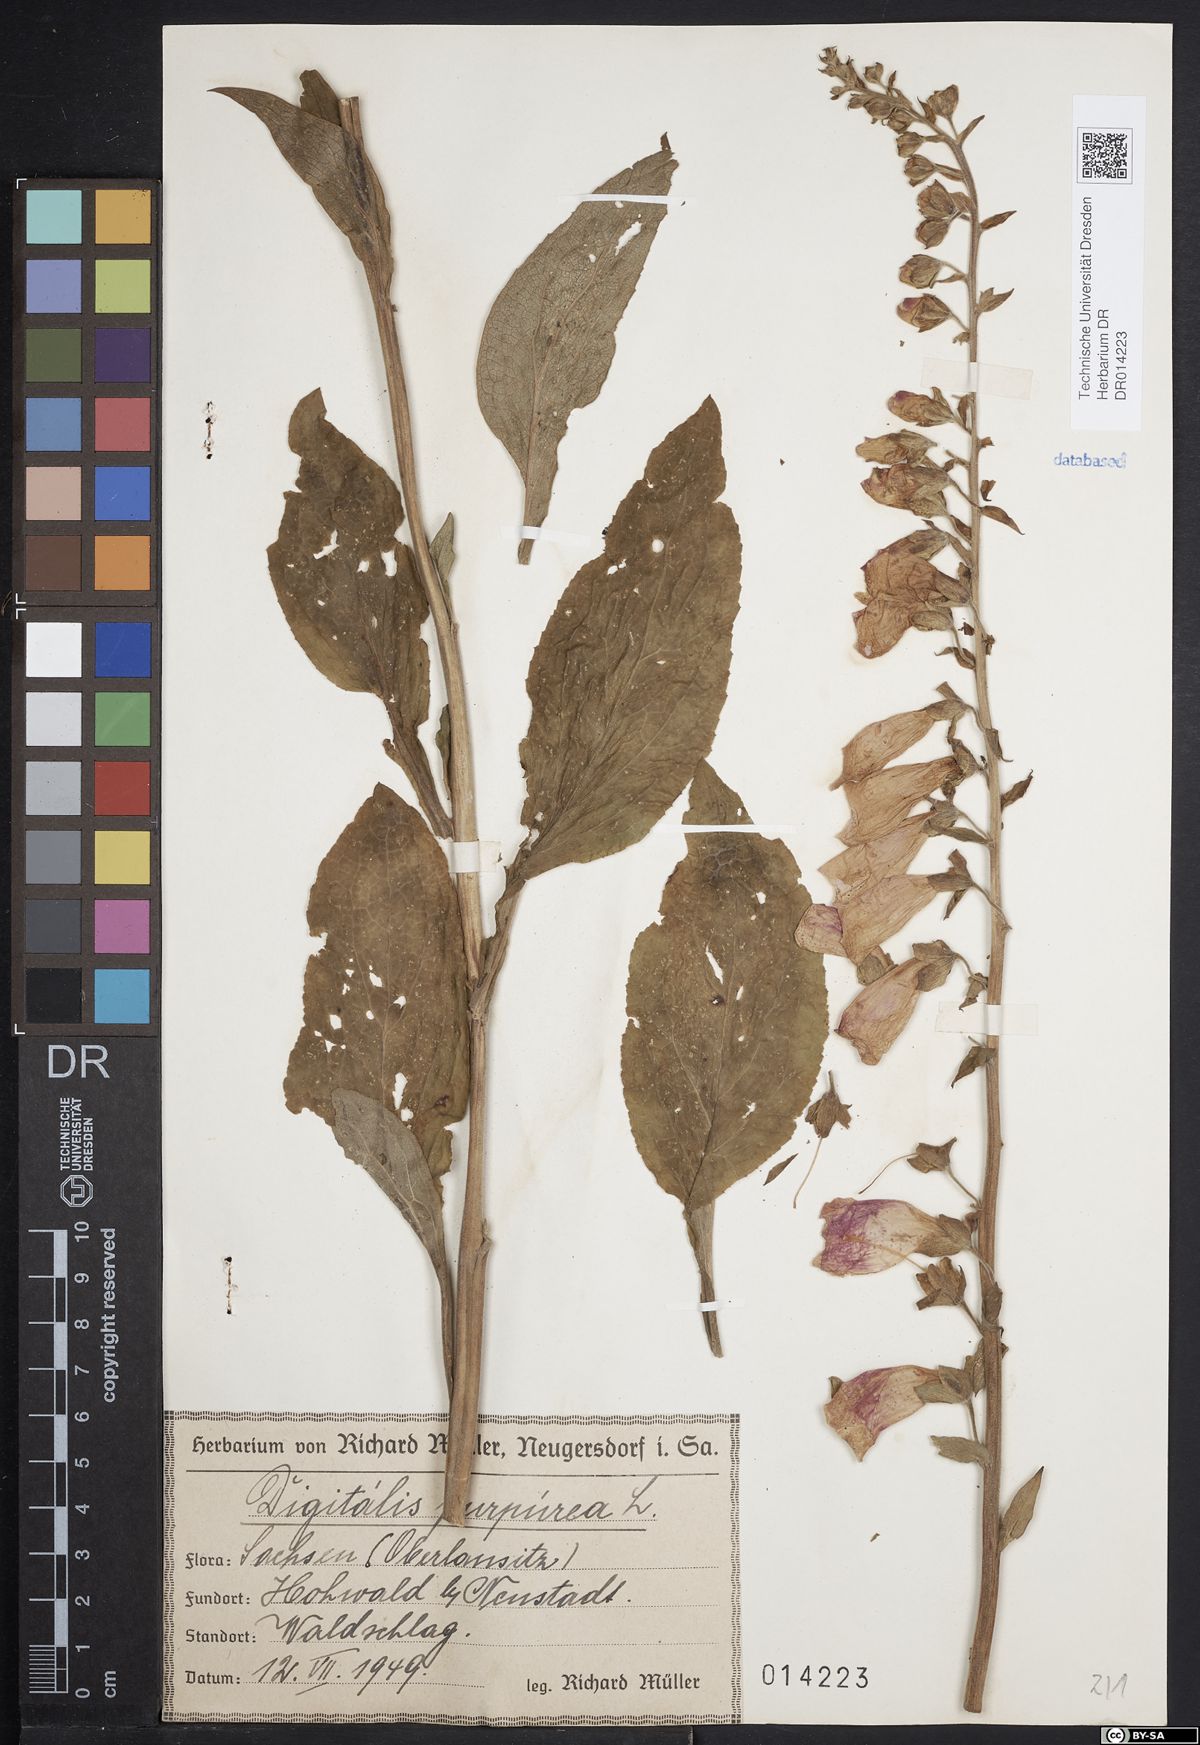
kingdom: Plantae
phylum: Tracheophyta
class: Magnoliopsida
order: Lamiales
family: Plantaginaceae
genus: Digitalis
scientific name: Digitalis purpurea
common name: Foxglove
